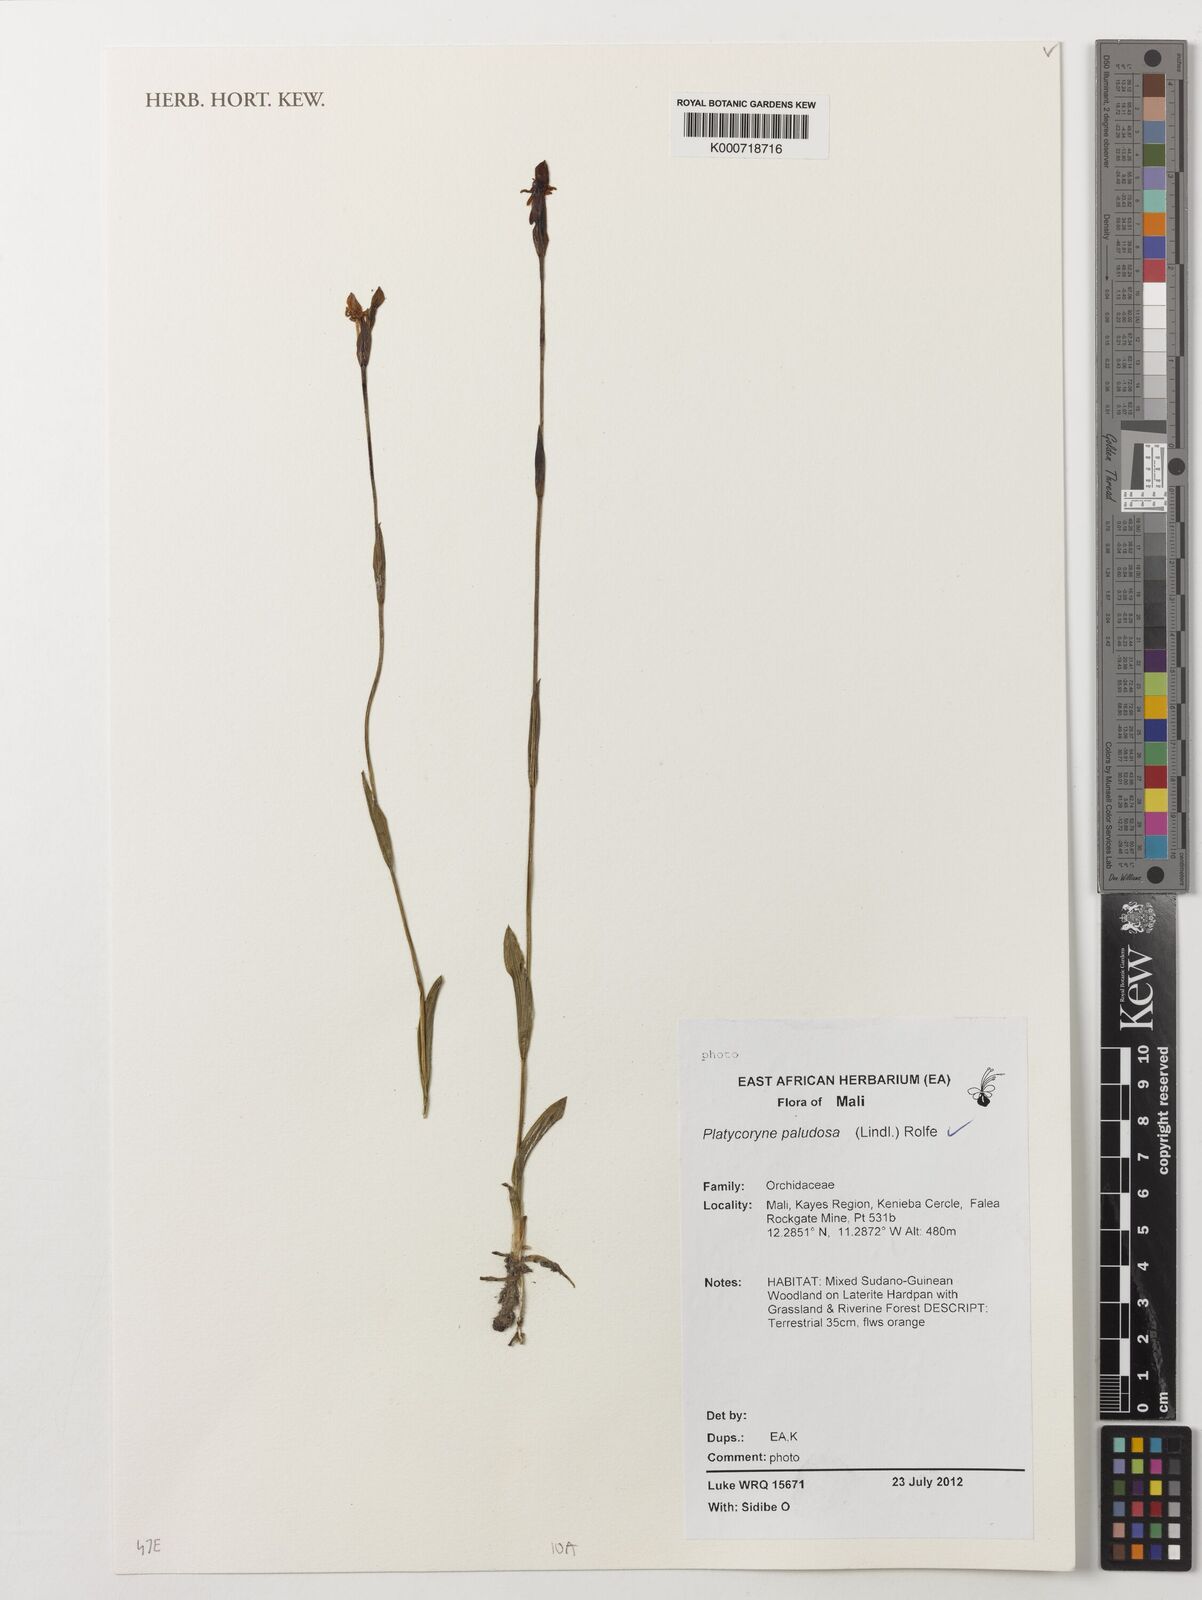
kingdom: Plantae
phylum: Tracheophyta
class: Liliopsida
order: Asparagales
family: Orchidaceae
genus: Platycoryne
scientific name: Platycoryne paludosa
